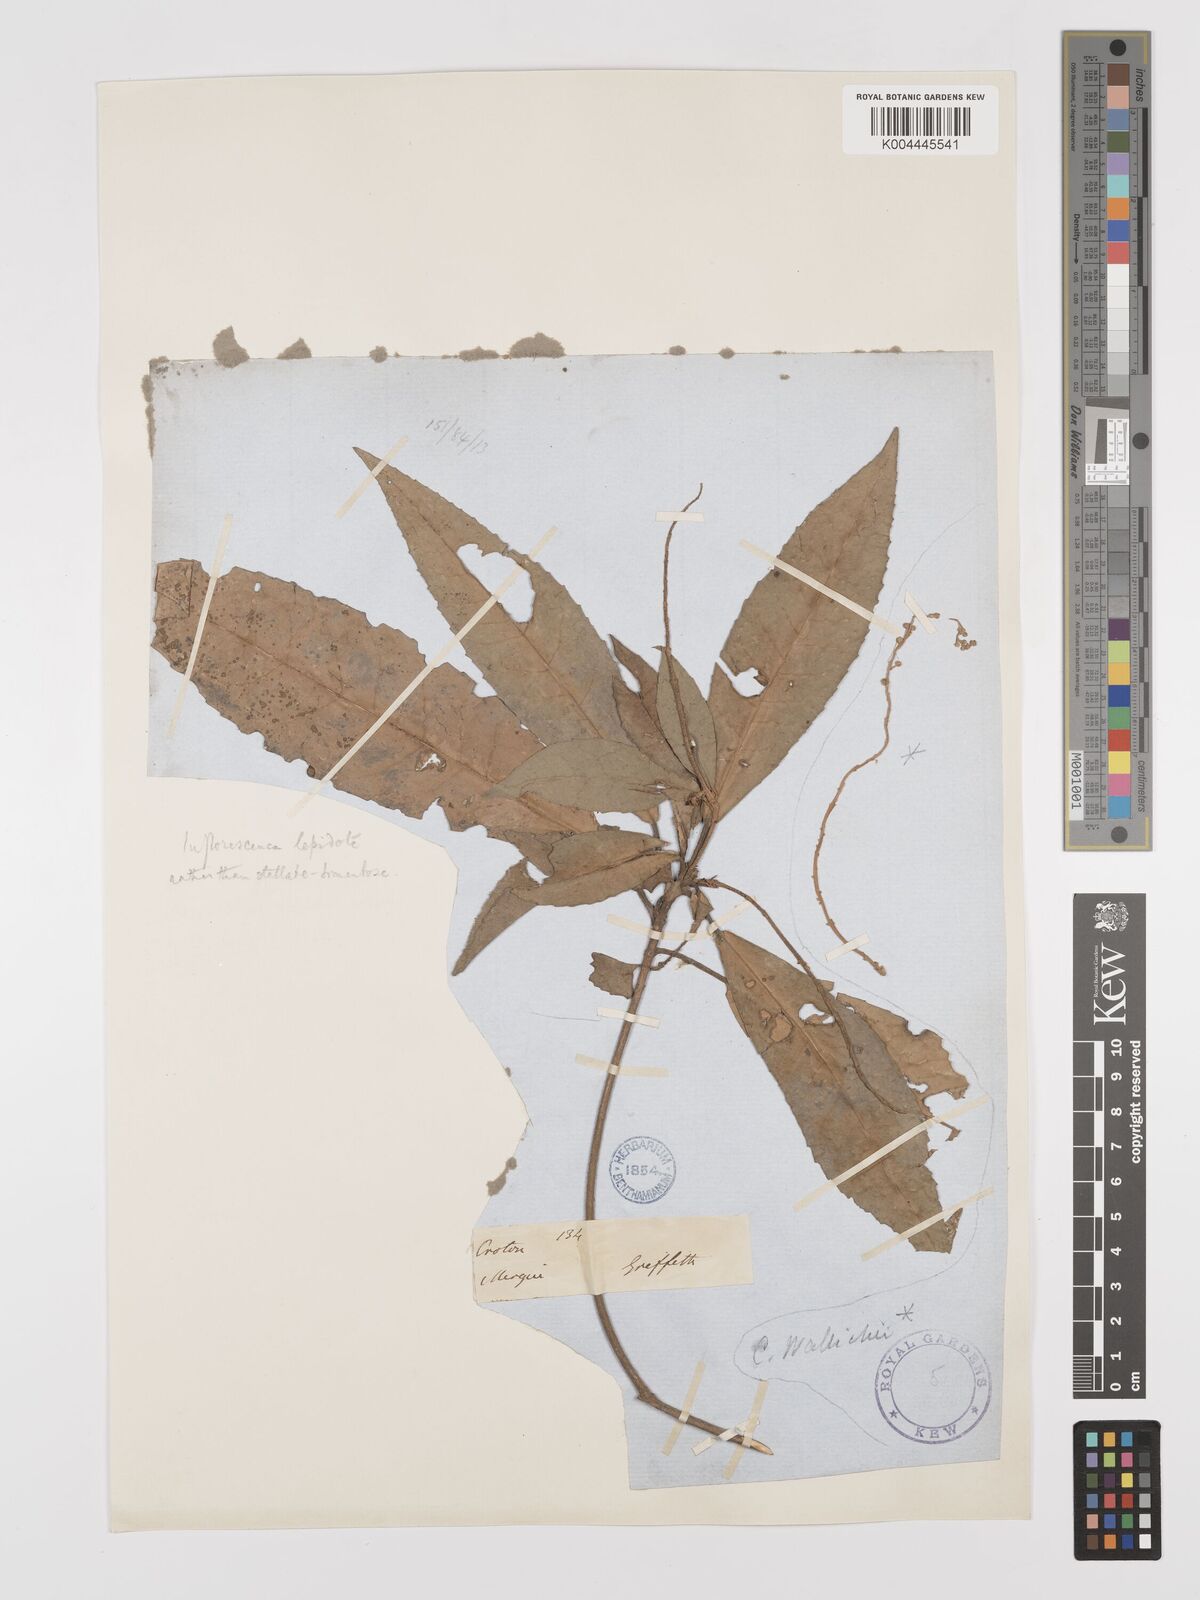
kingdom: Plantae
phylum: Tracheophyta
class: Magnoliopsida
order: Malpighiales
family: Euphorbiaceae
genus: Croton
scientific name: Croton joufra
